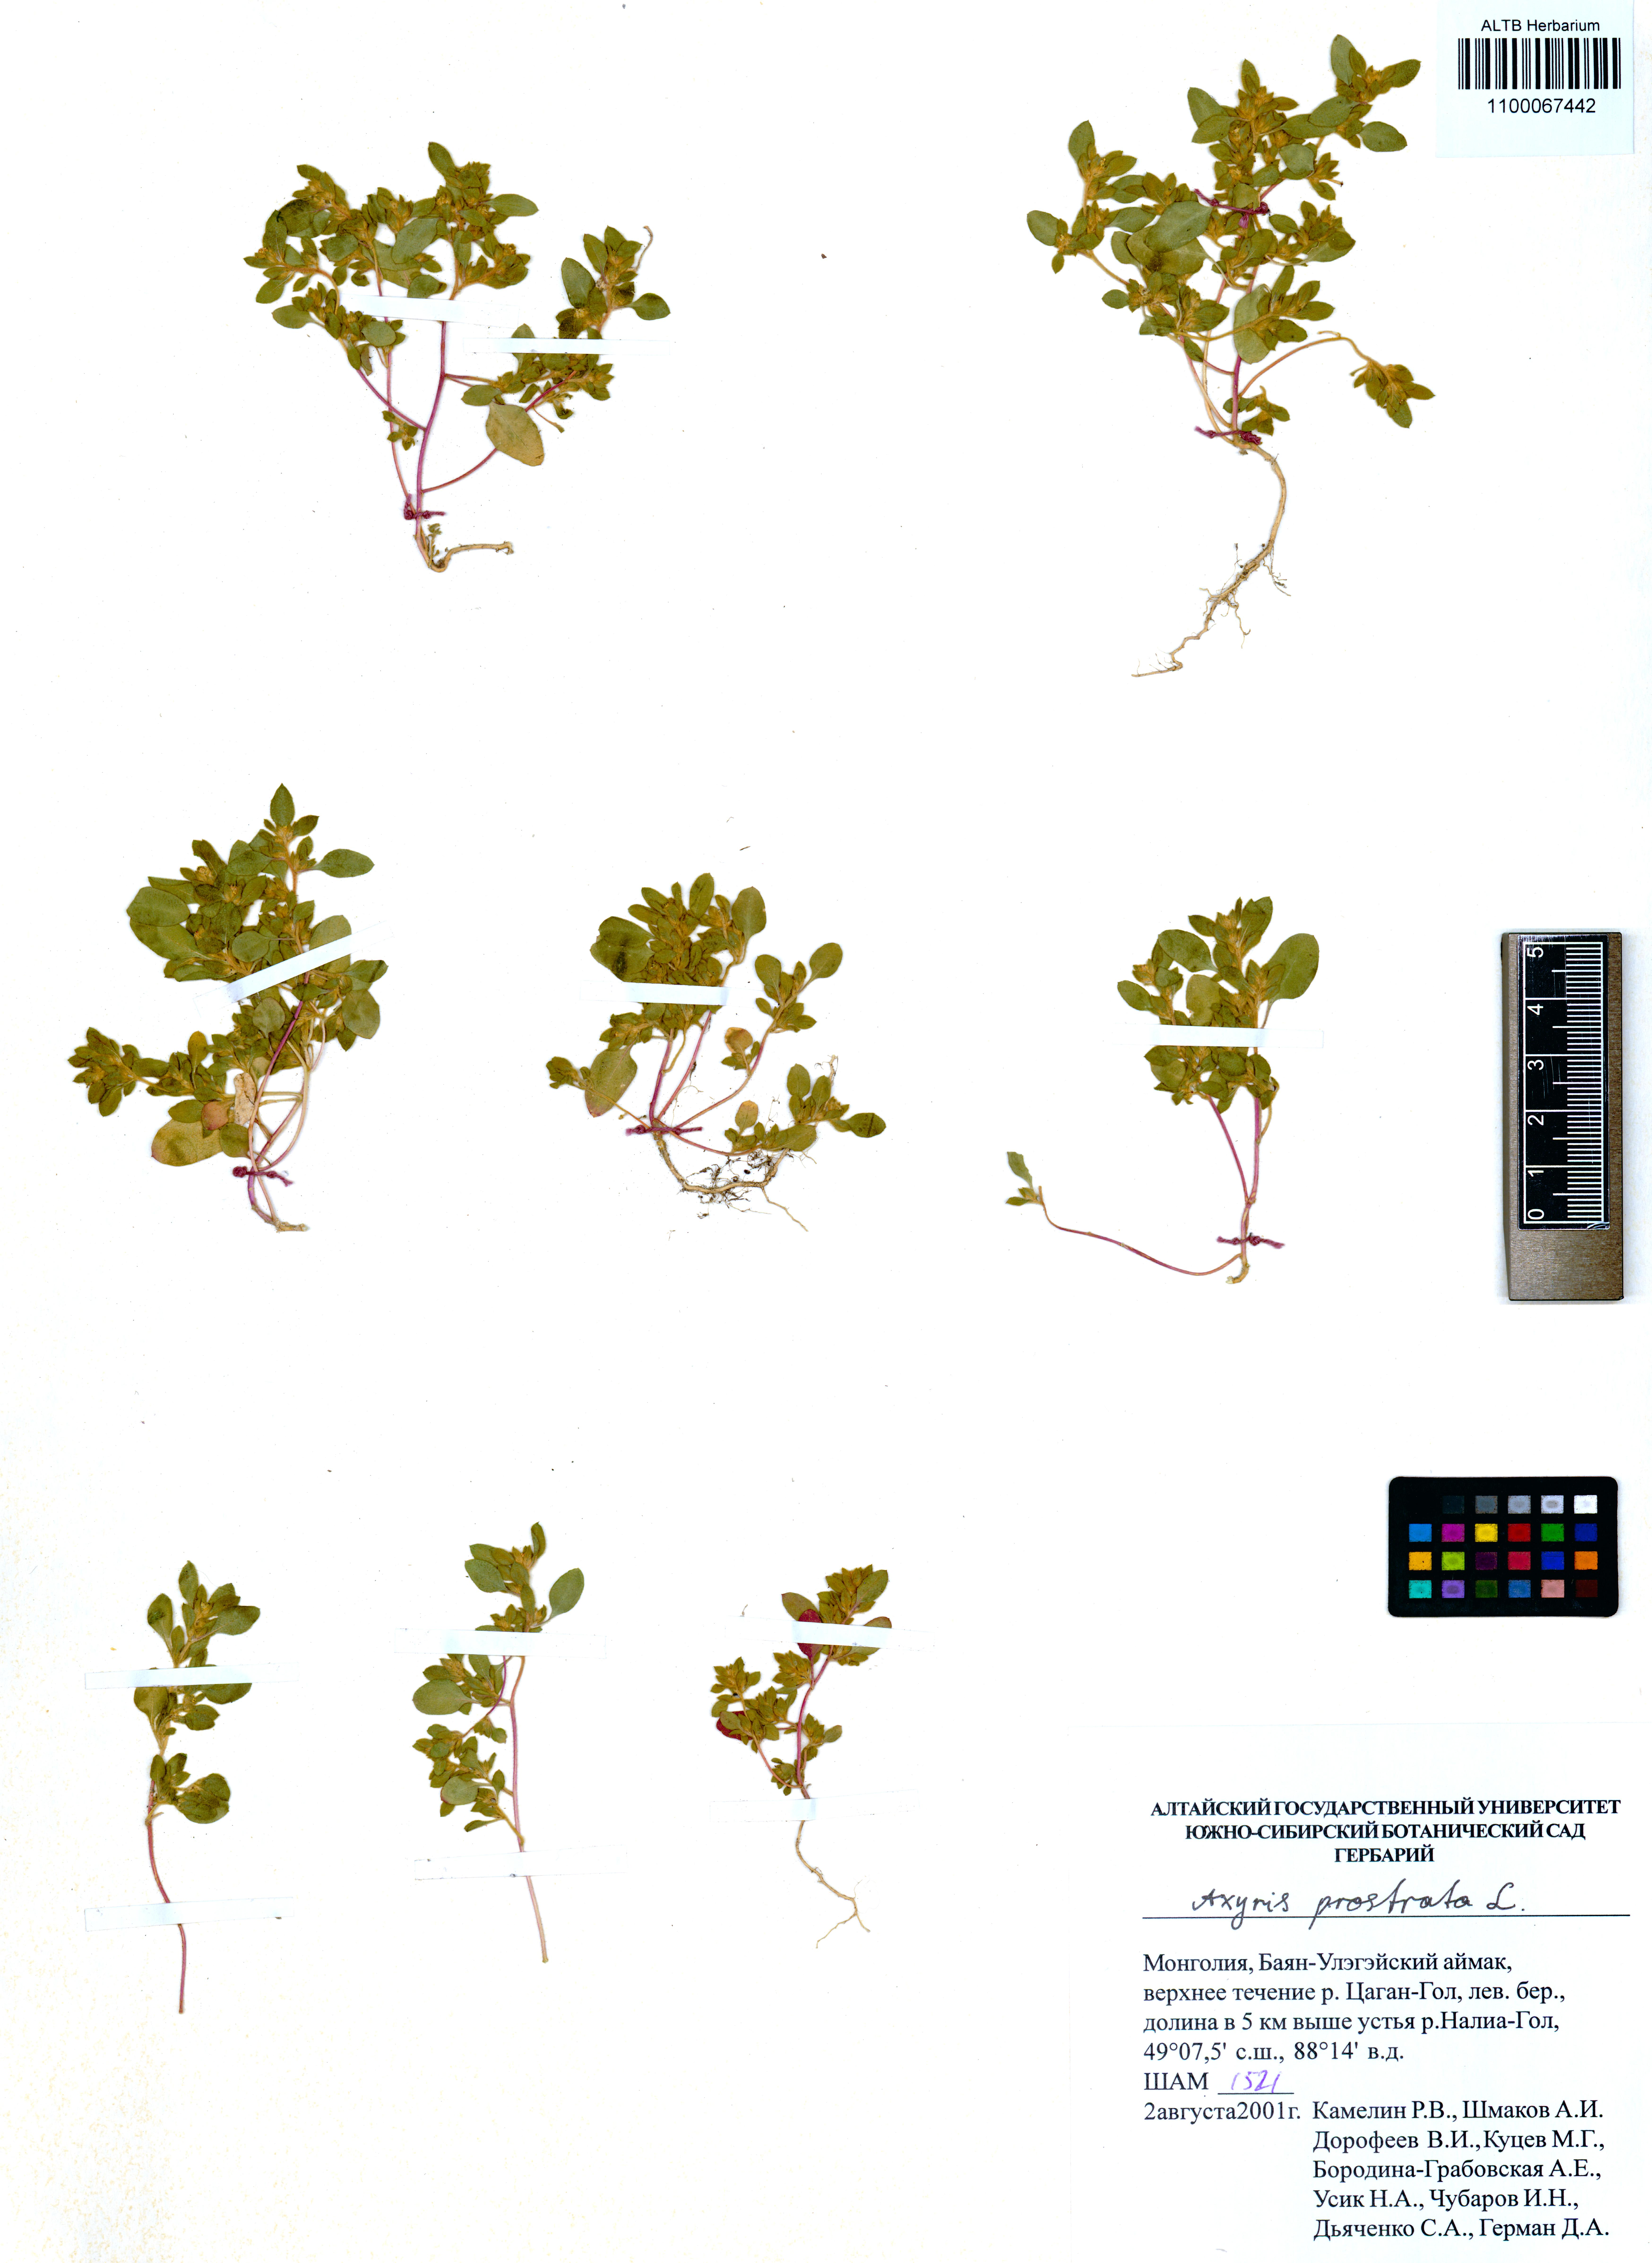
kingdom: Plantae
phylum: Tracheophyta
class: Magnoliopsida
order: Caryophyllales
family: Amaranthaceae
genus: Axyris
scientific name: Axyris prostrata
